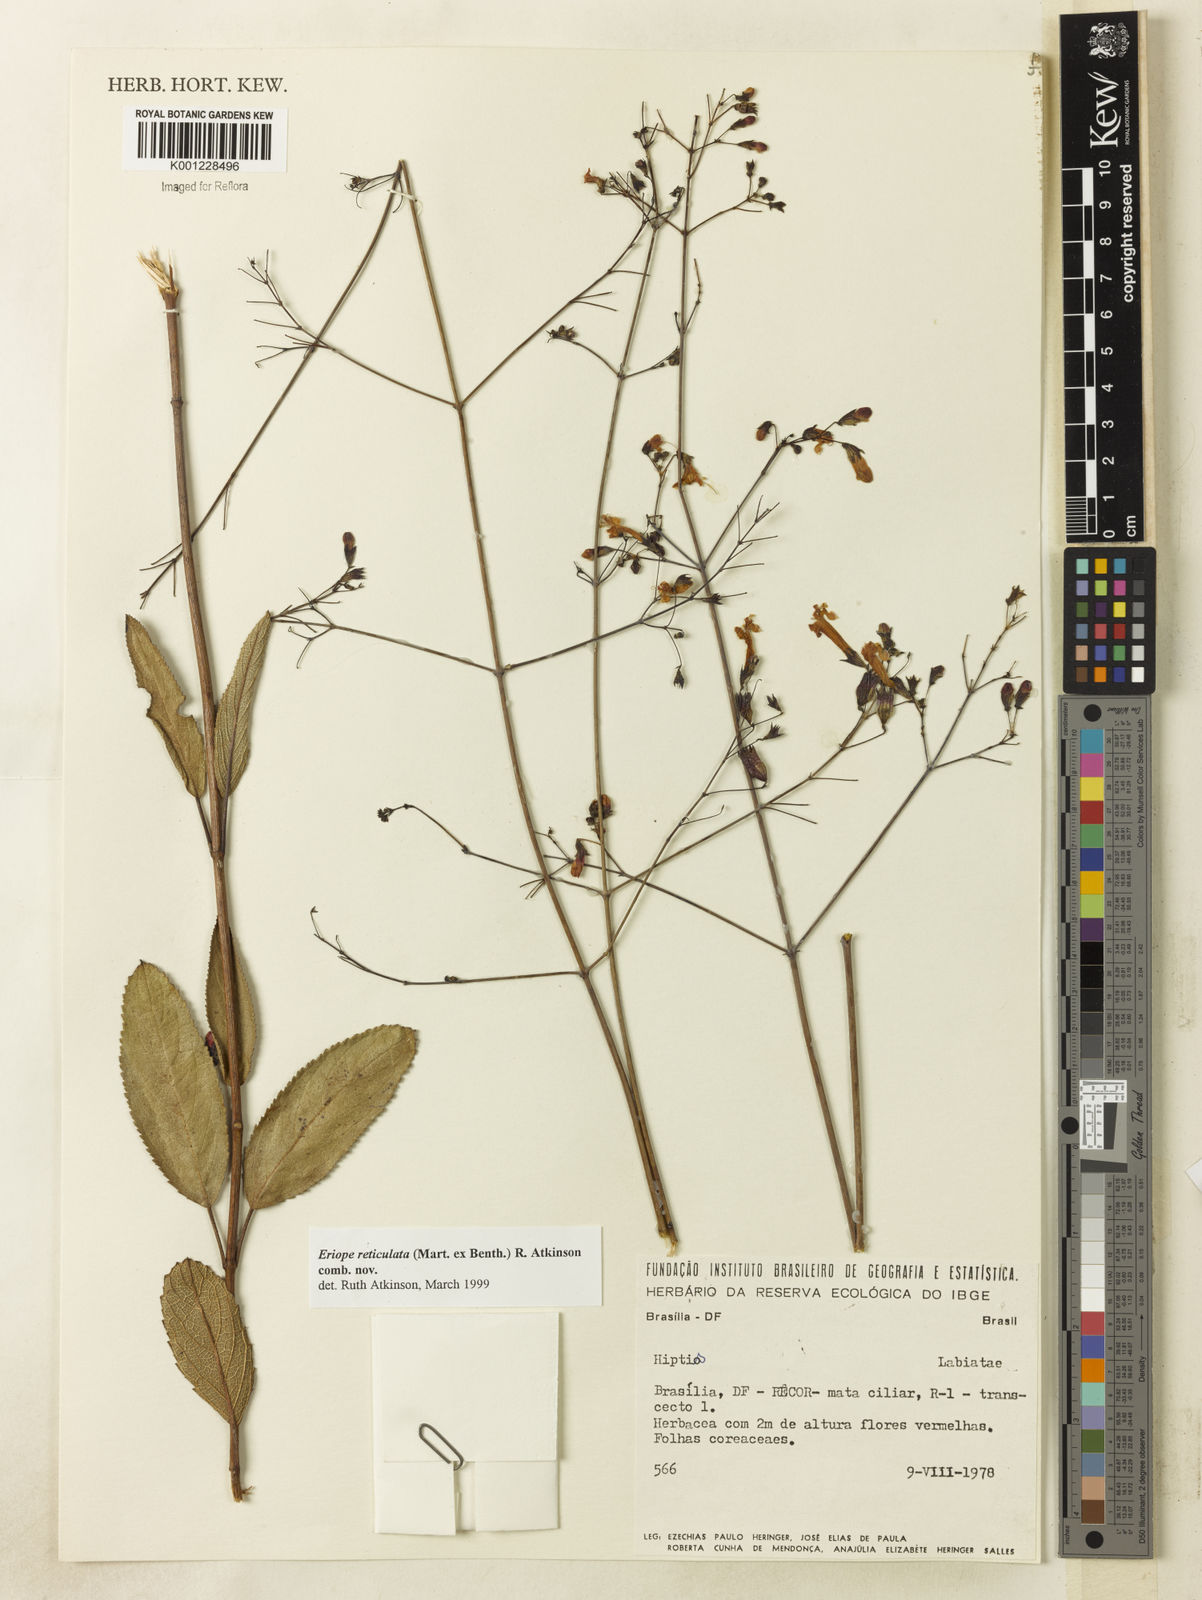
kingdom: Plantae
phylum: Tracheophyta
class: Magnoliopsida
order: Lamiales
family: Lamiaceae
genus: Hypenia
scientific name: Hypenia reticulata
